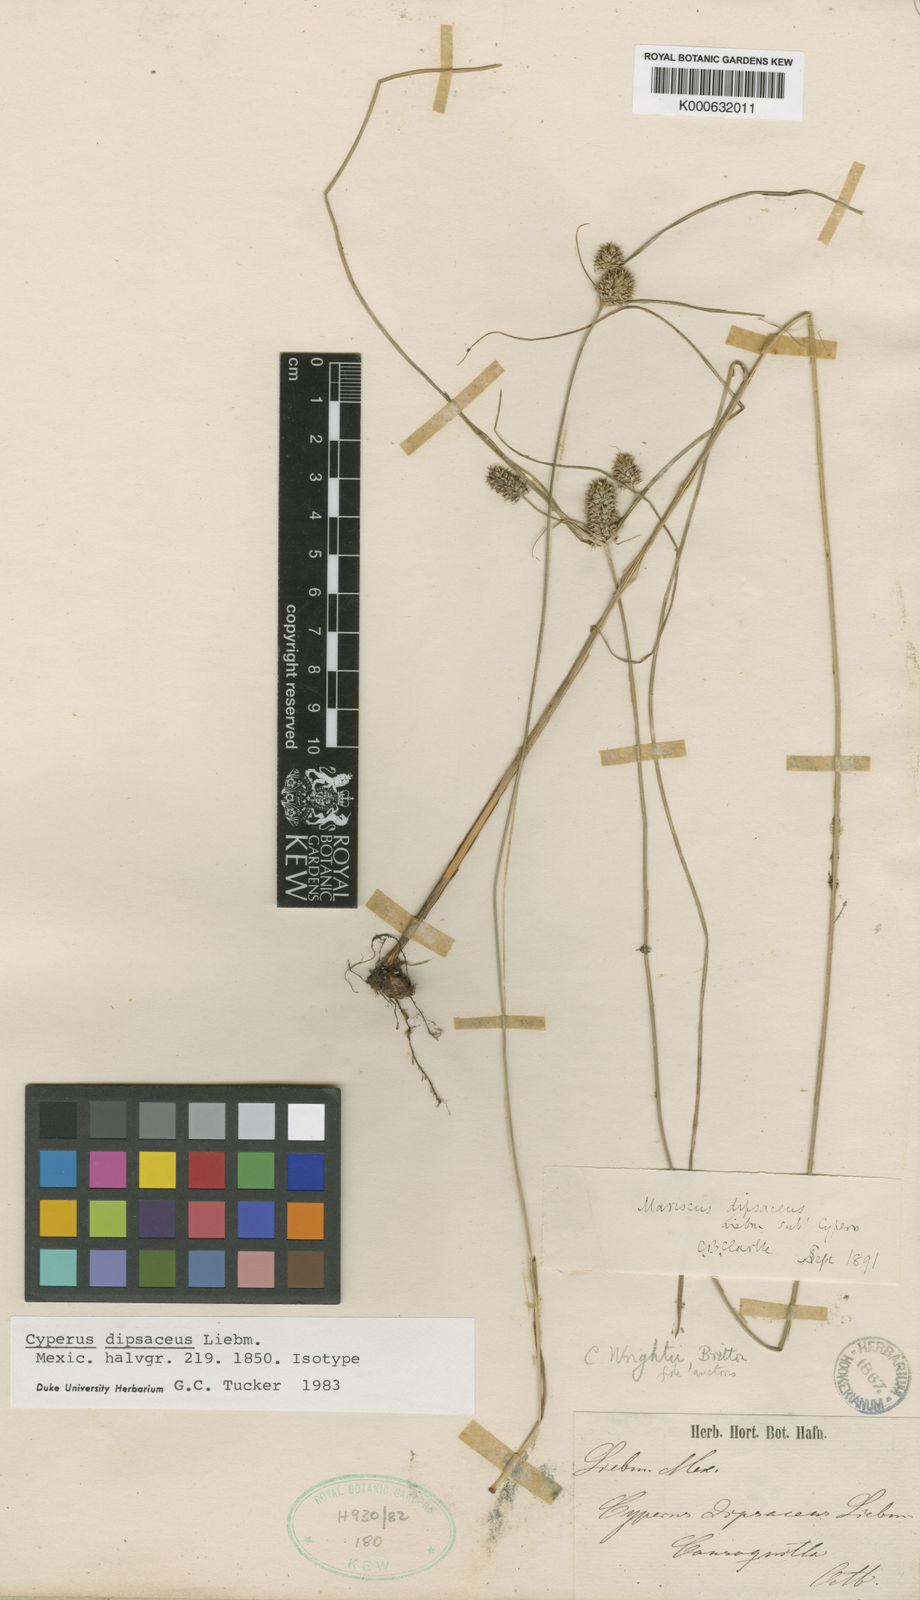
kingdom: Plantae
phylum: Tracheophyta
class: Liliopsida
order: Poales
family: Cyperaceae
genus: Cyperus
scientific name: Cyperus dipsaceus
